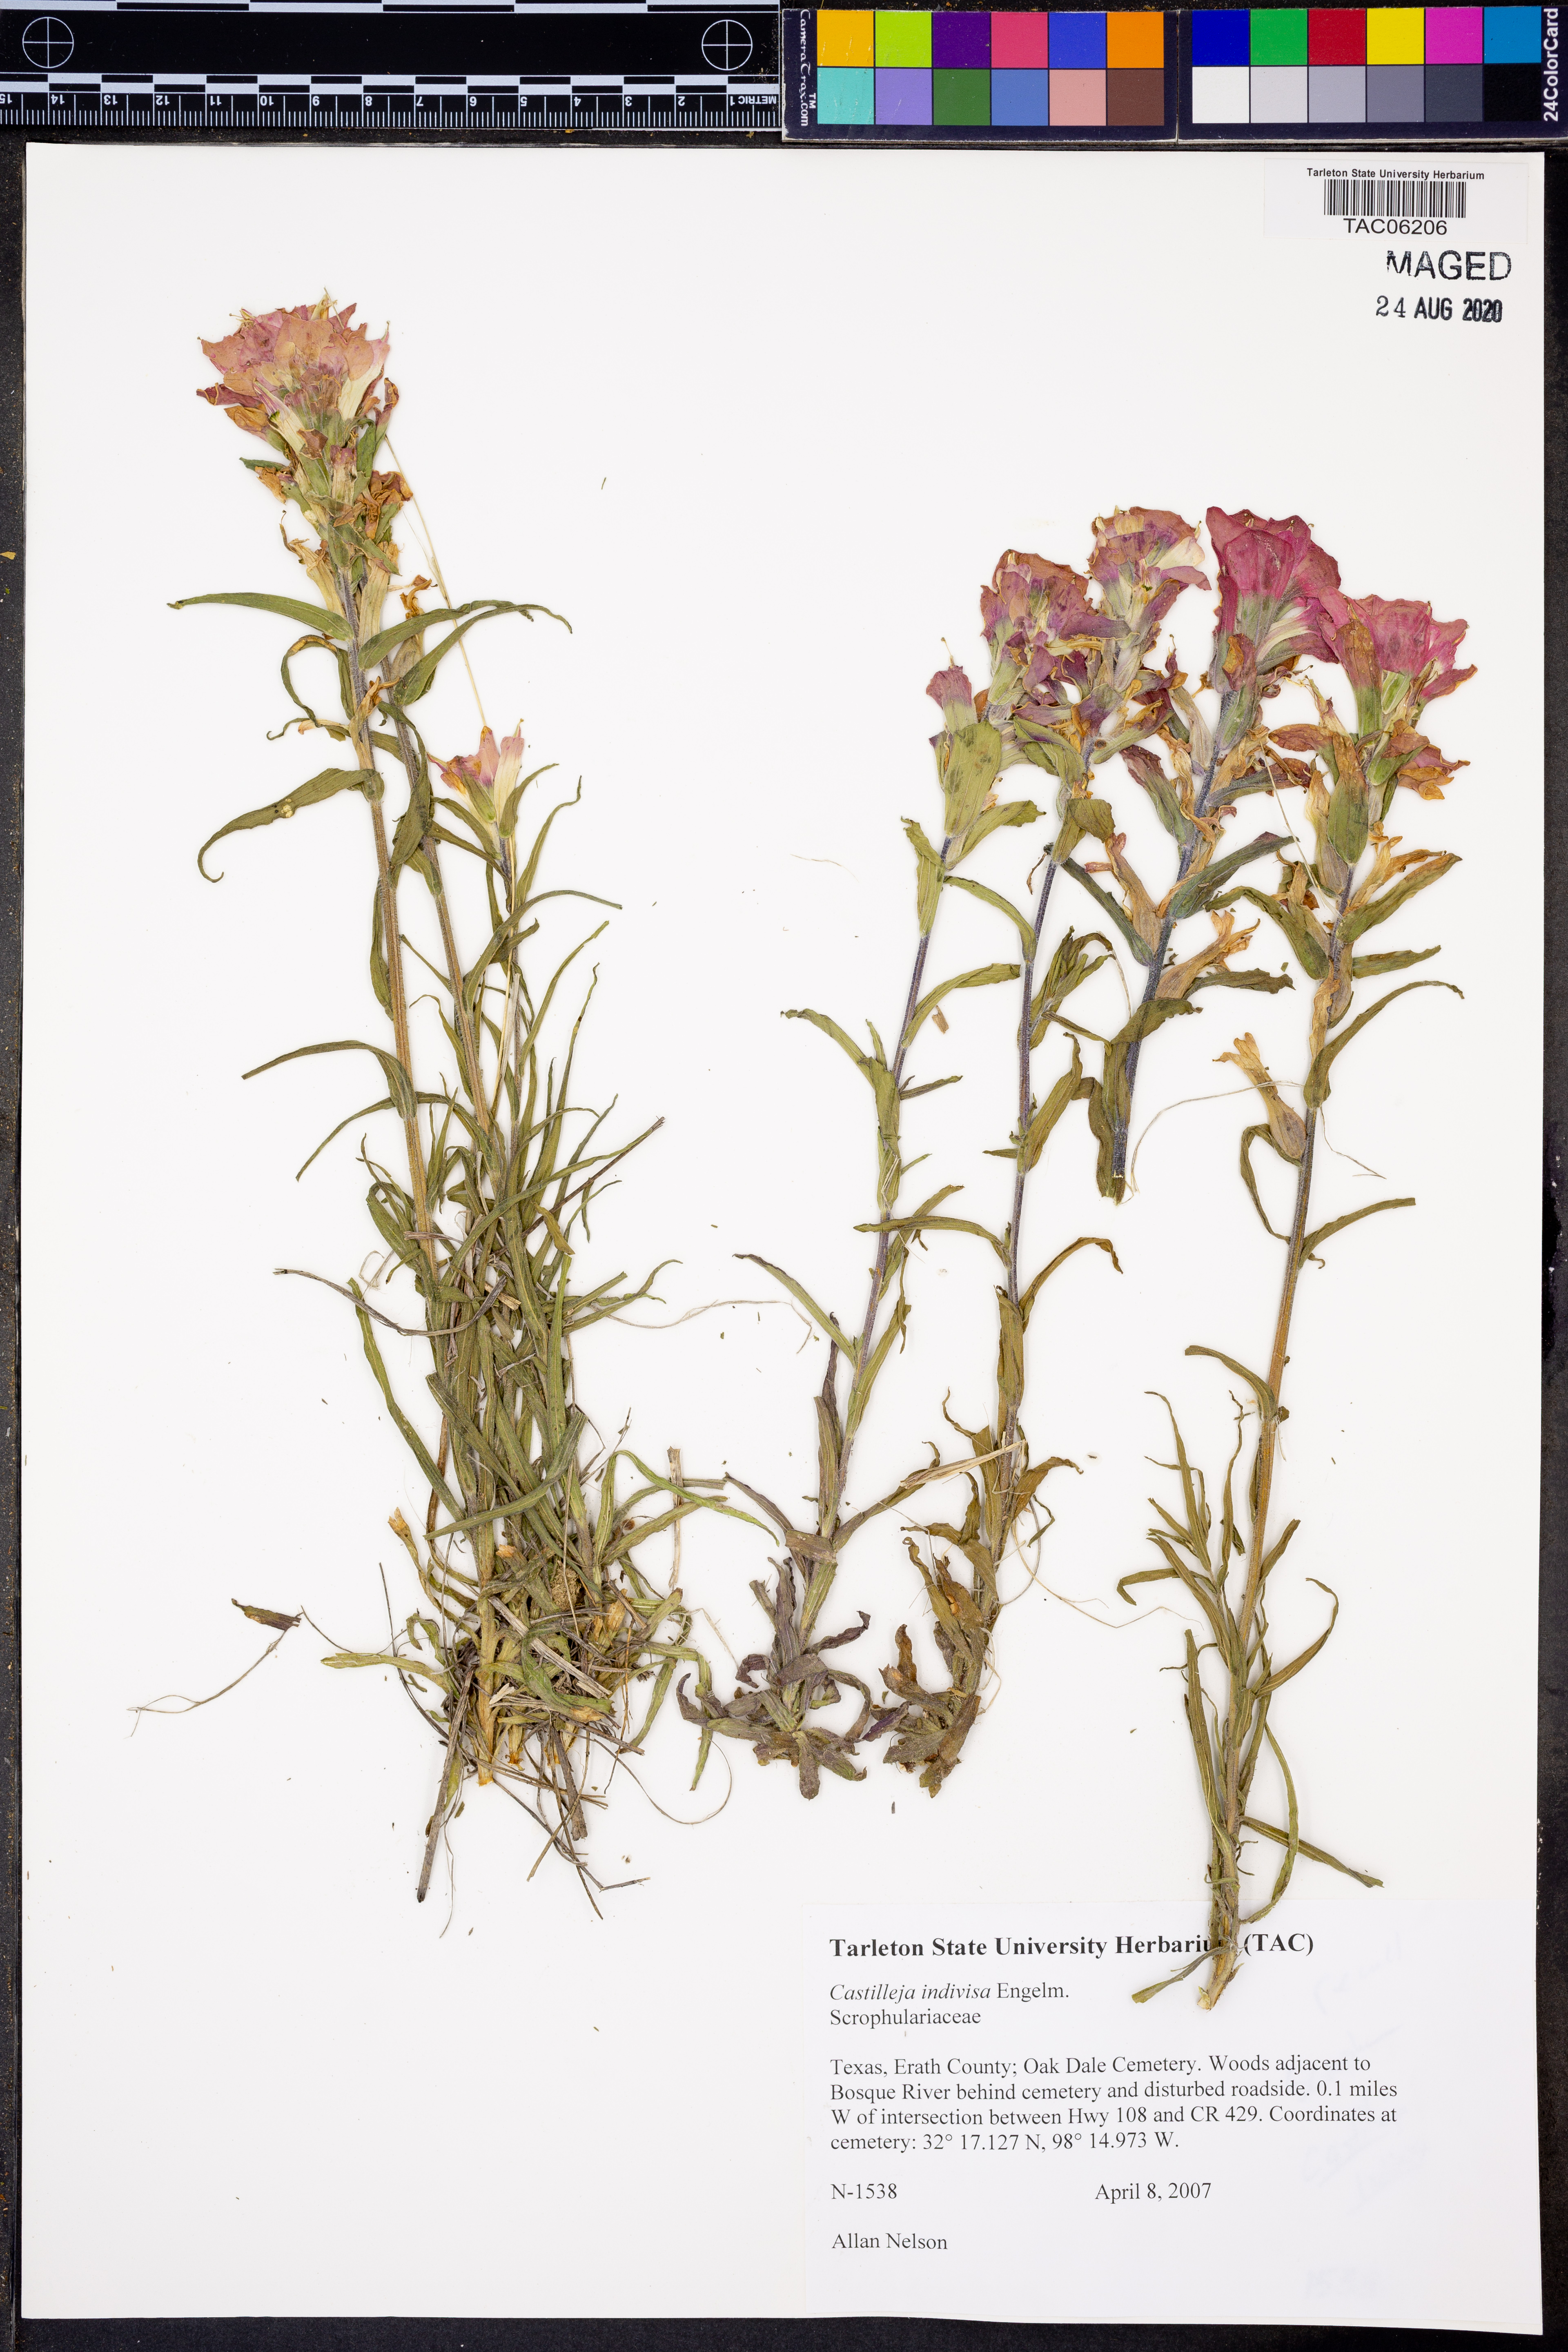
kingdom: Plantae
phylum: Tracheophyta
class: Magnoliopsida
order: Lamiales
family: Orobanchaceae
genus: Castilleja
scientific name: Castilleja indivisa
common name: Texas paintbrush
